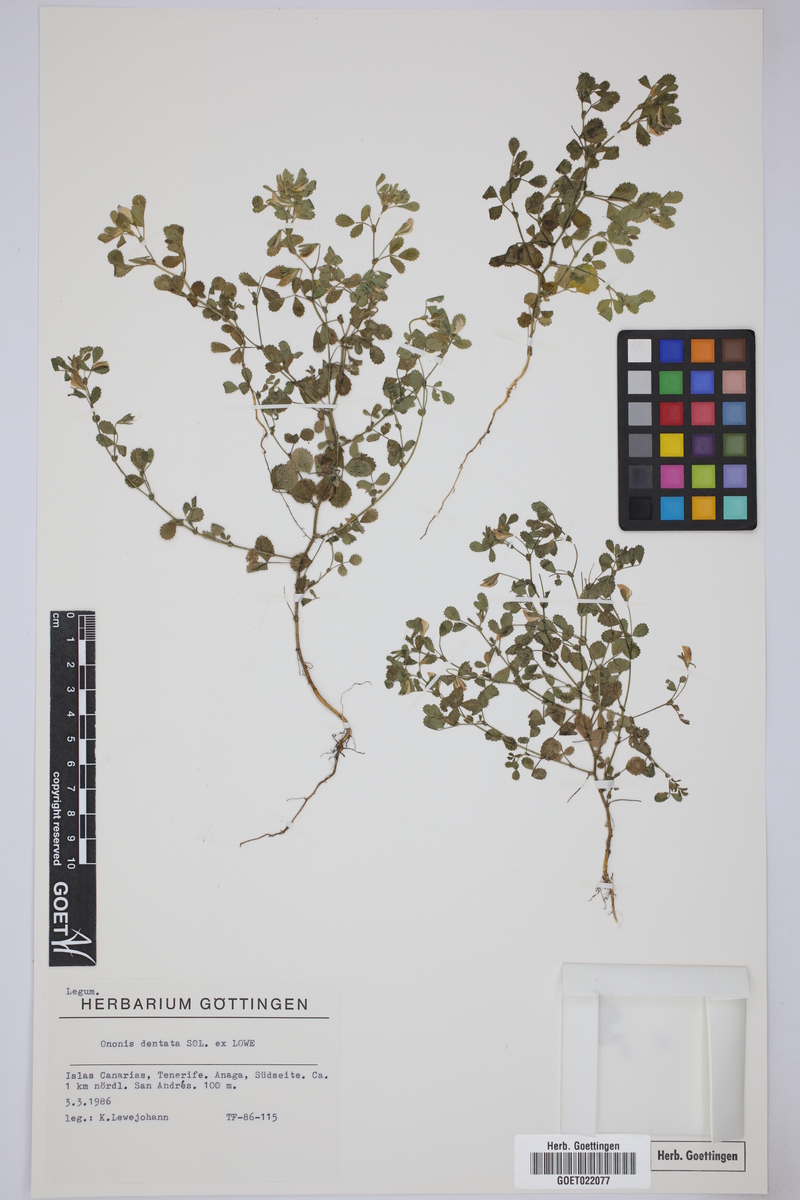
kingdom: Plantae
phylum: Tracheophyta
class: Magnoliopsida
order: Fabales
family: Fabaceae
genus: Ononis
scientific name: Ononis dentata
